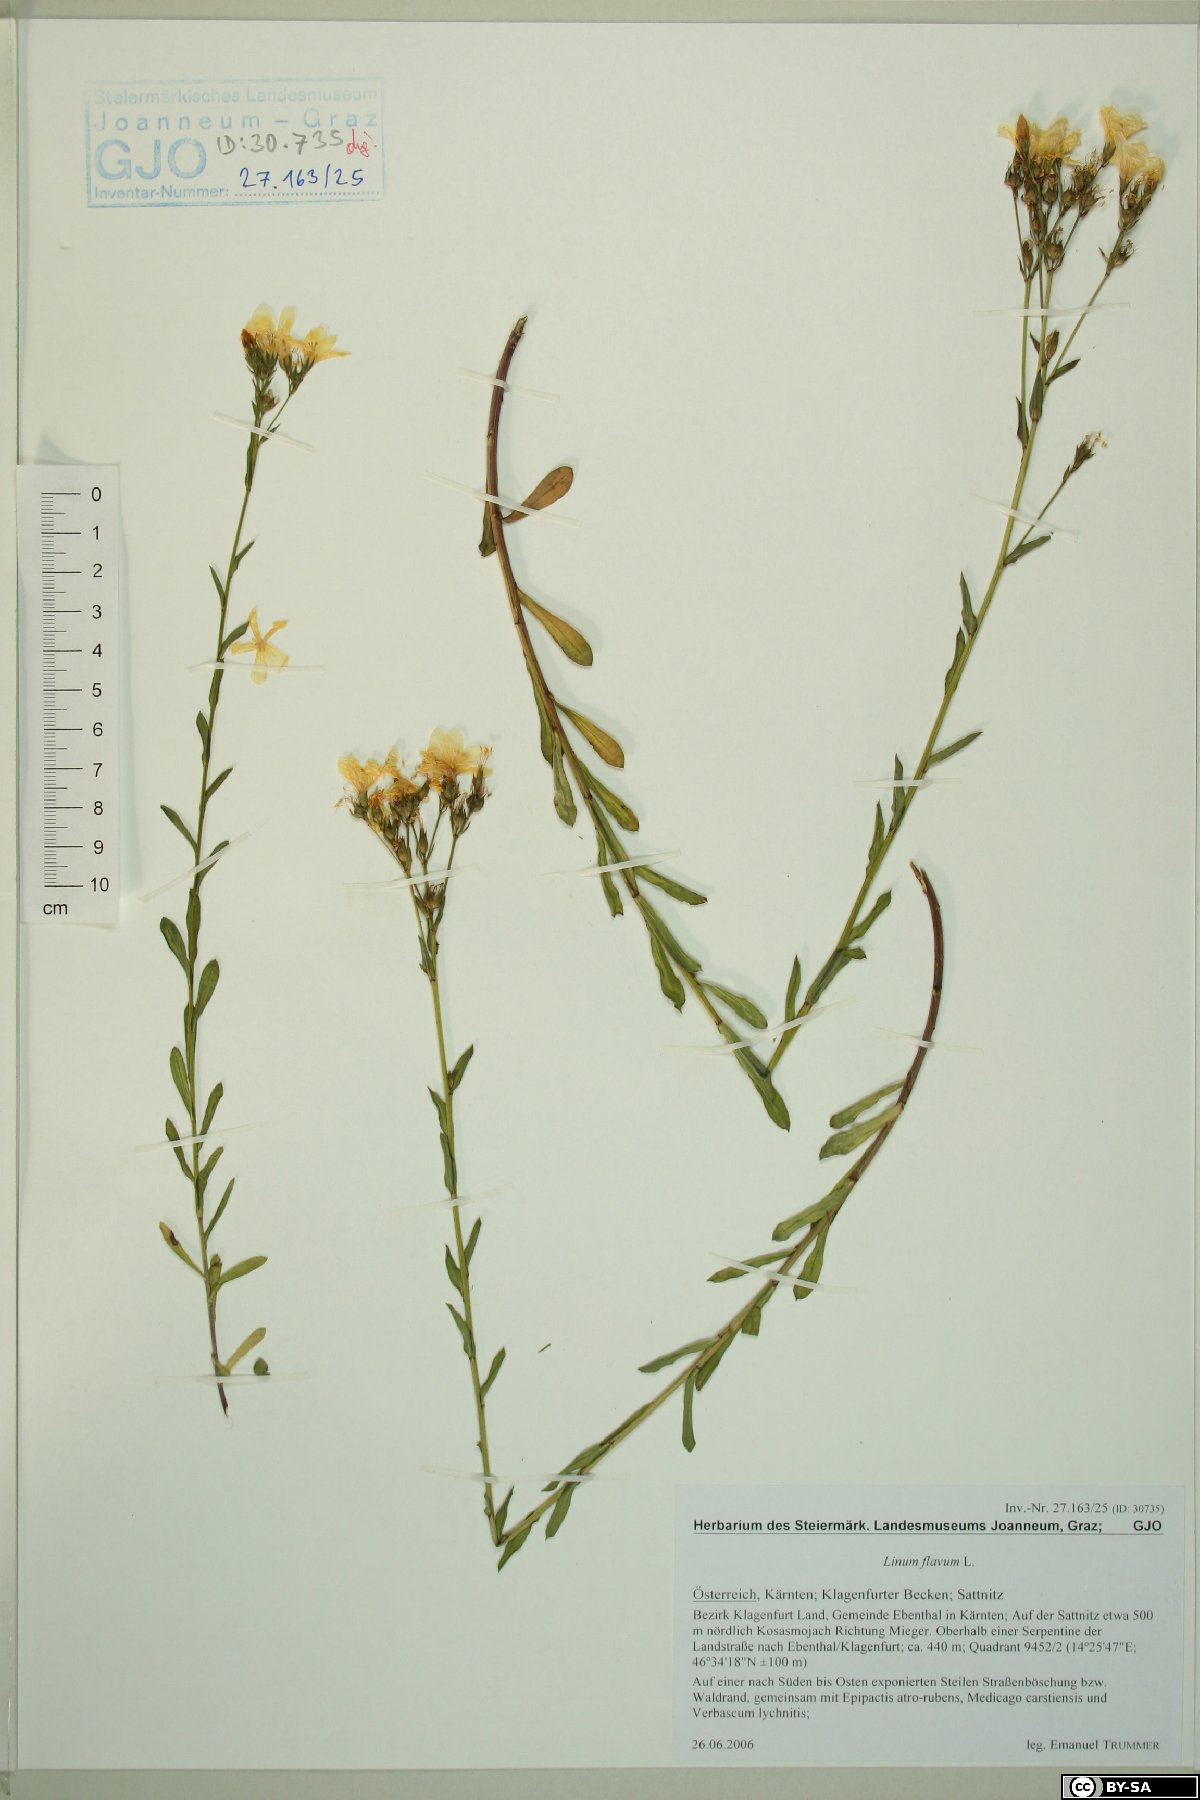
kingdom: Plantae
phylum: Tracheophyta
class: Magnoliopsida
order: Malpighiales
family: Linaceae
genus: Linum
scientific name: Linum flavum
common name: Yellow flax
